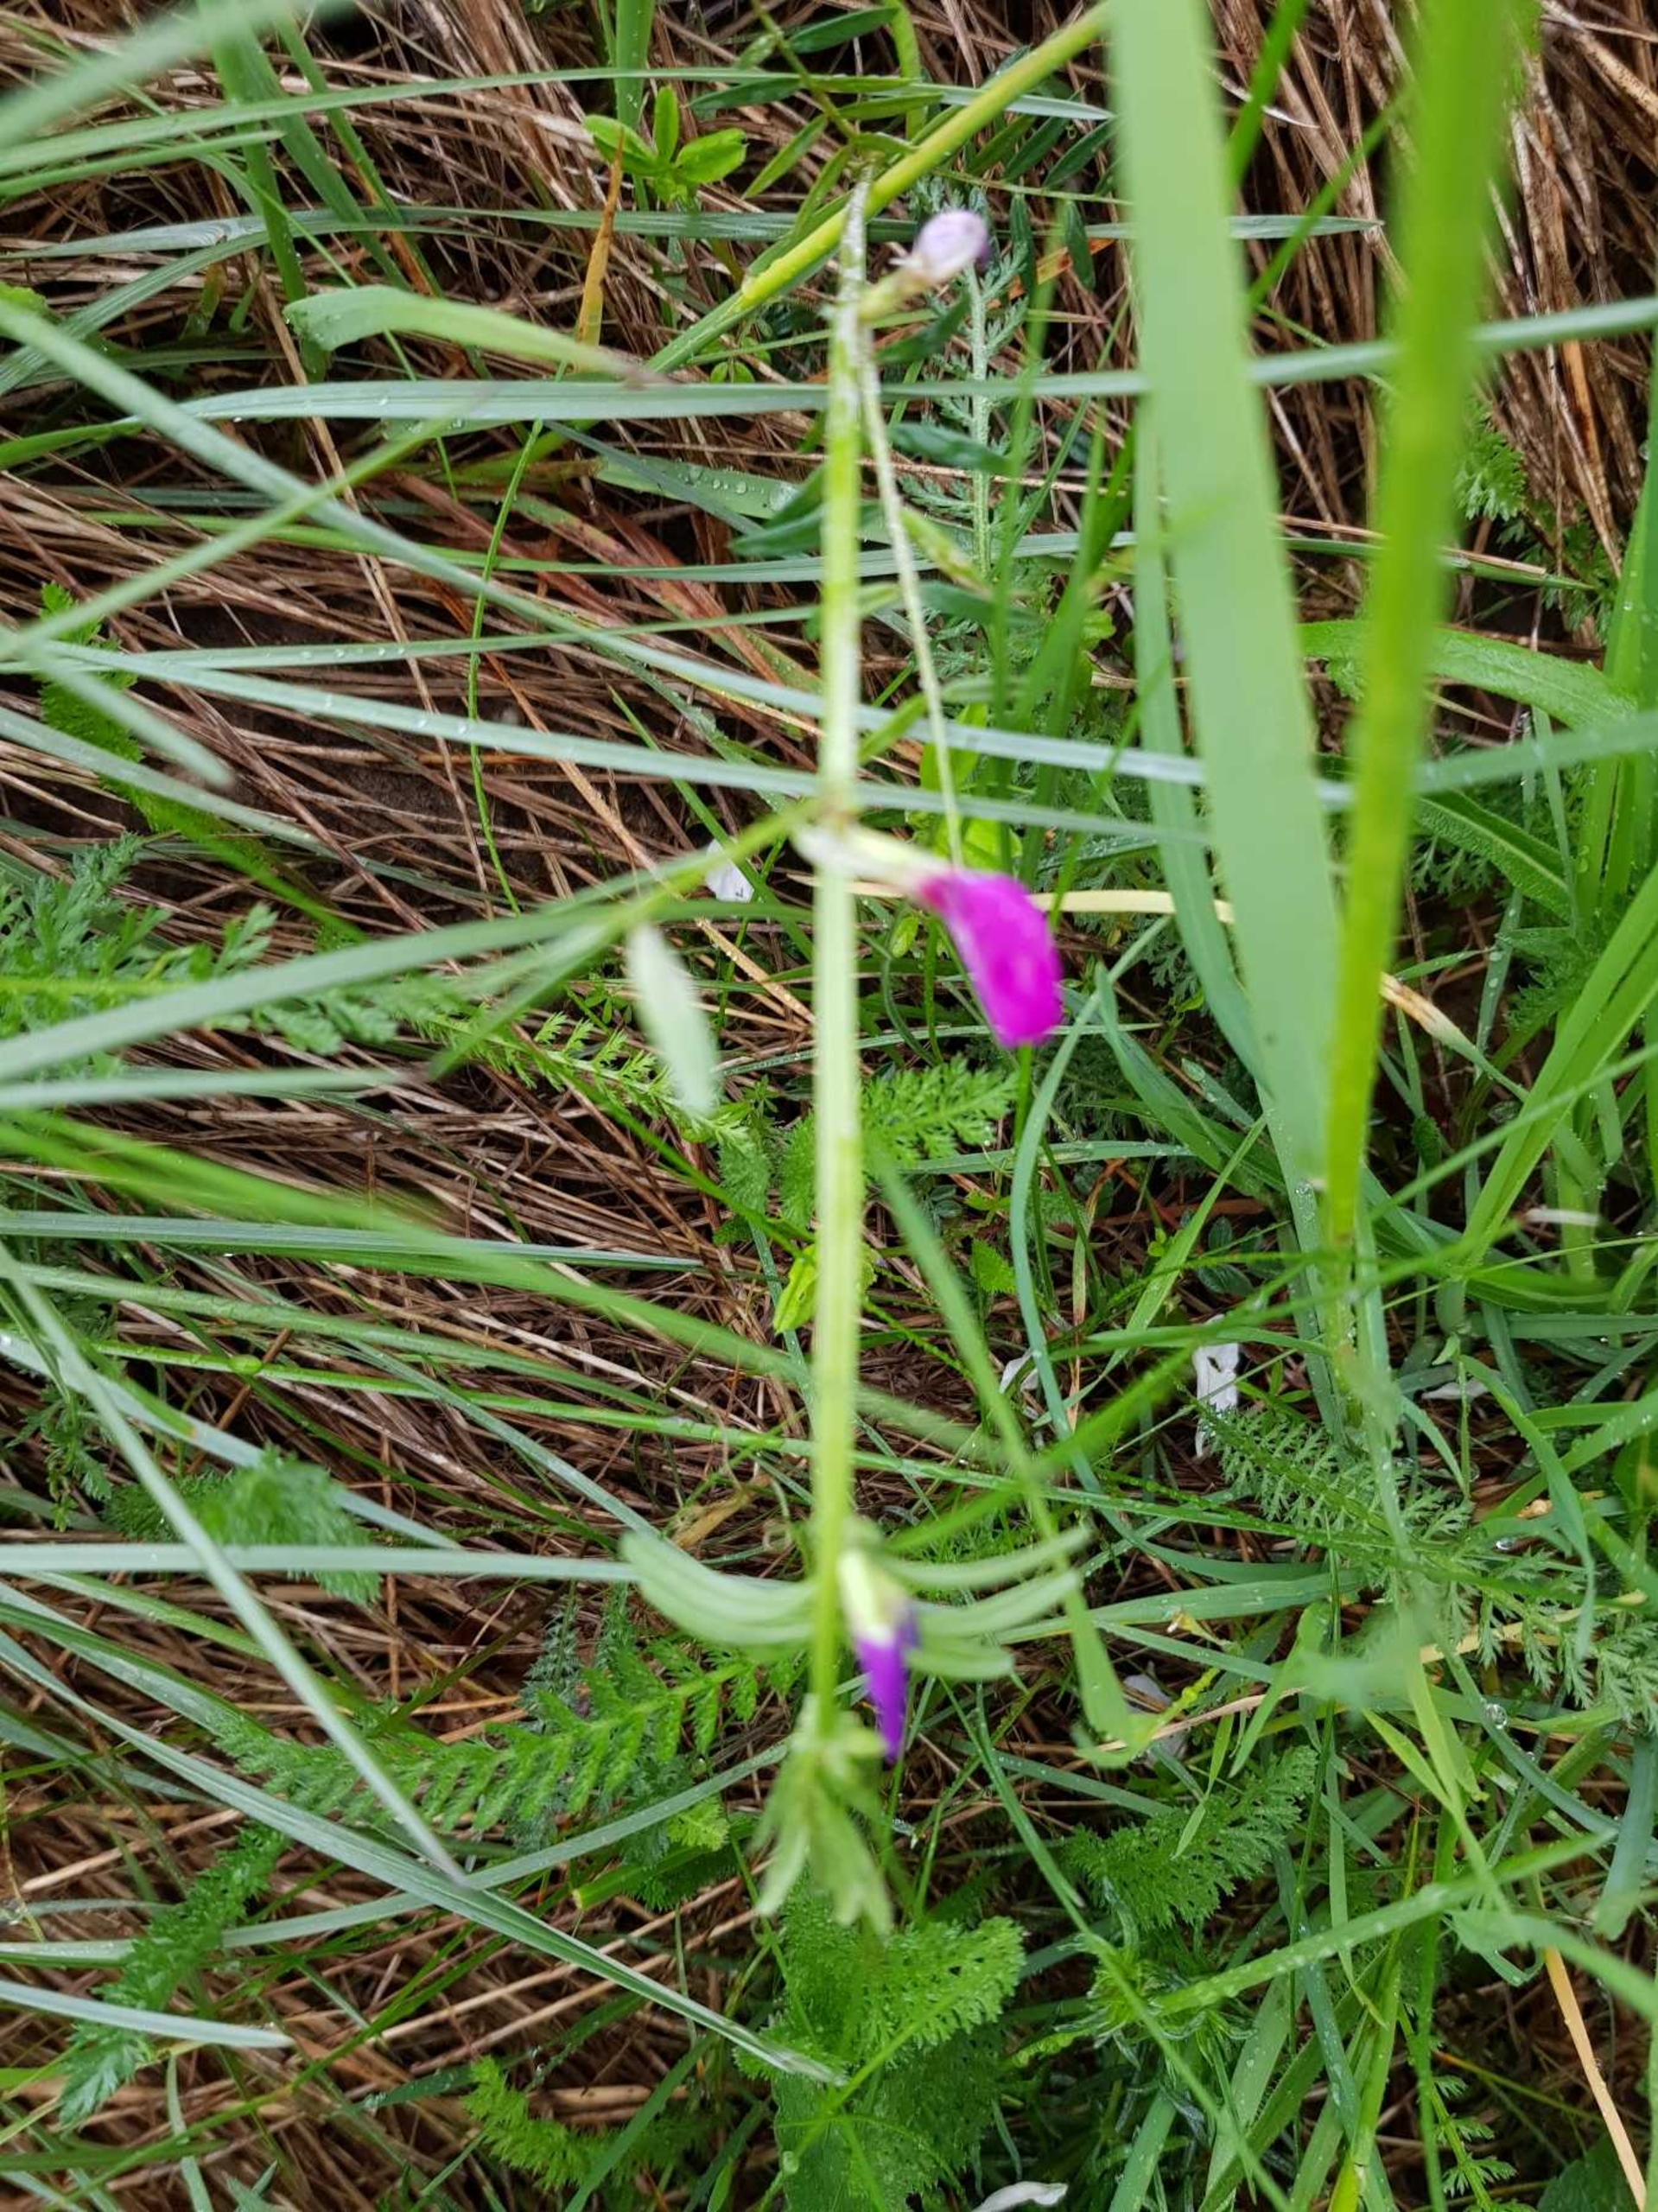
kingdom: Plantae
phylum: Tracheophyta
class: Magnoliopsida
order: Fabales
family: Fabaceae
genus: Vicia
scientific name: Vicia sativa
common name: Foder-vikke
